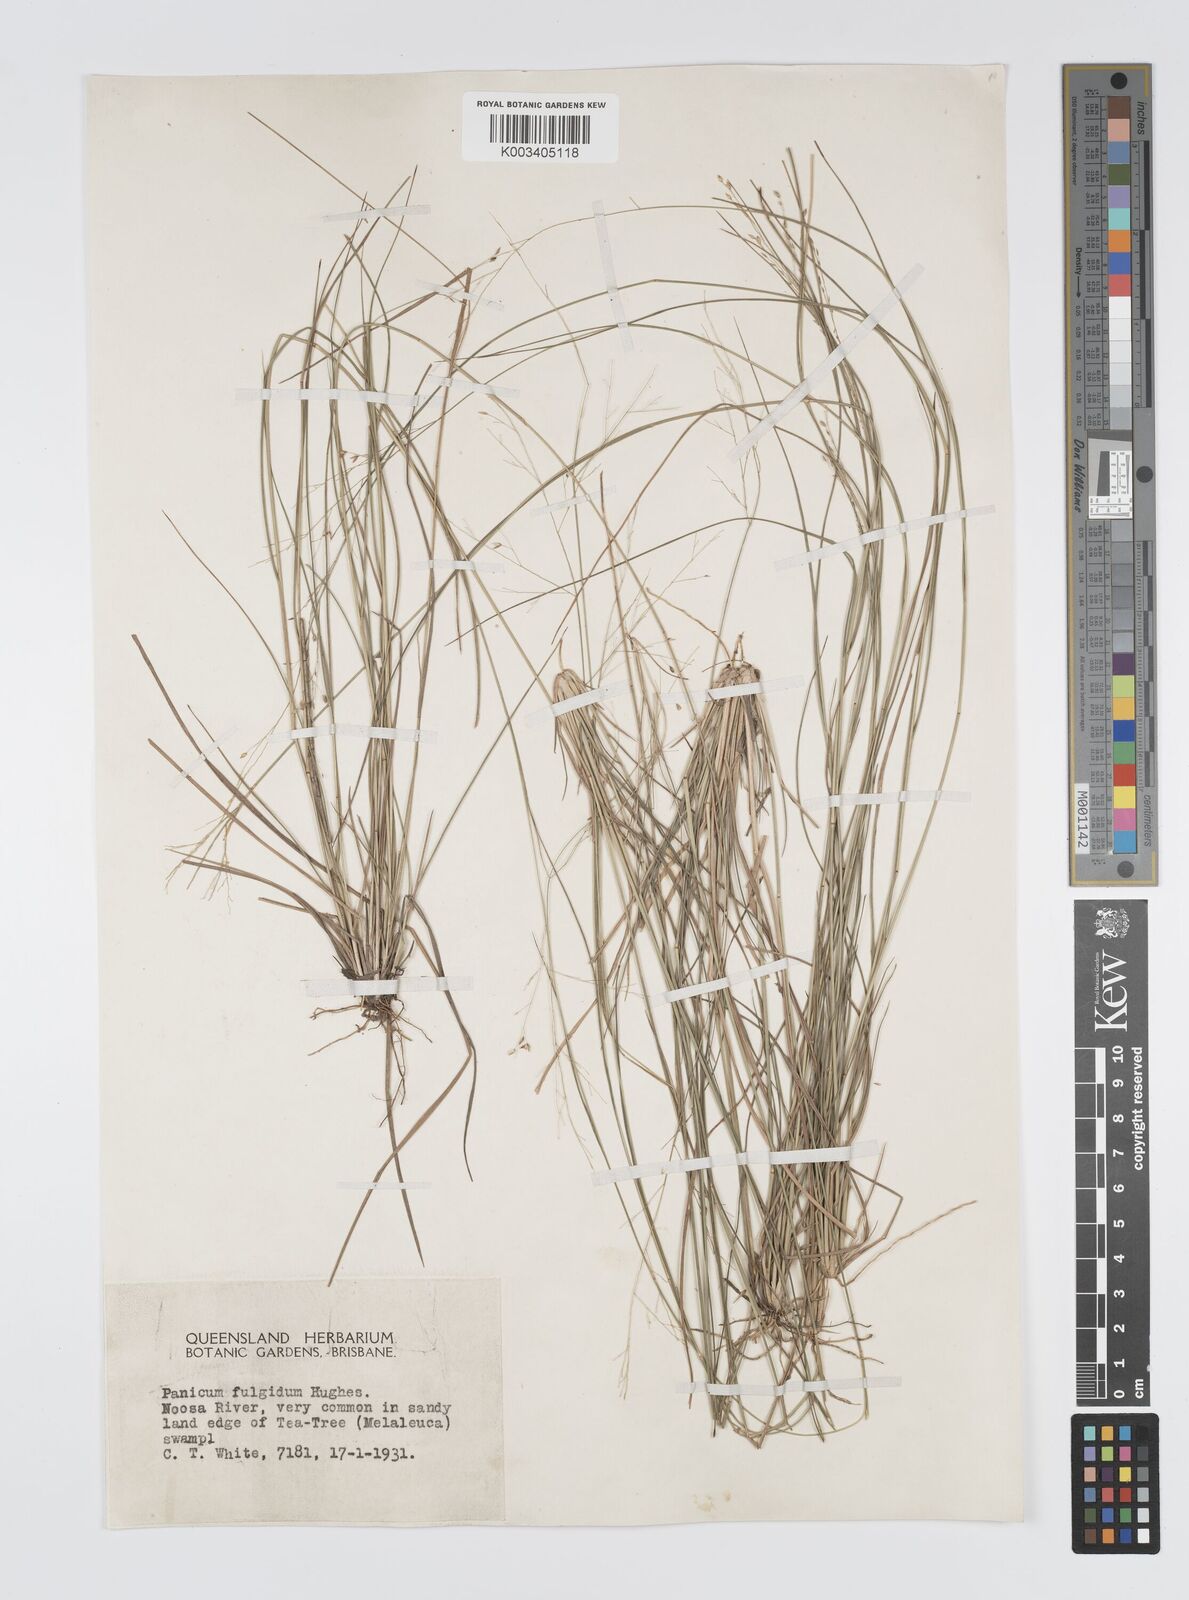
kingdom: Plantae
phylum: Tracheophyta
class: Liliopsida
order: Poales
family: Poaceae
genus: Panicum
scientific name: Panicum simile
